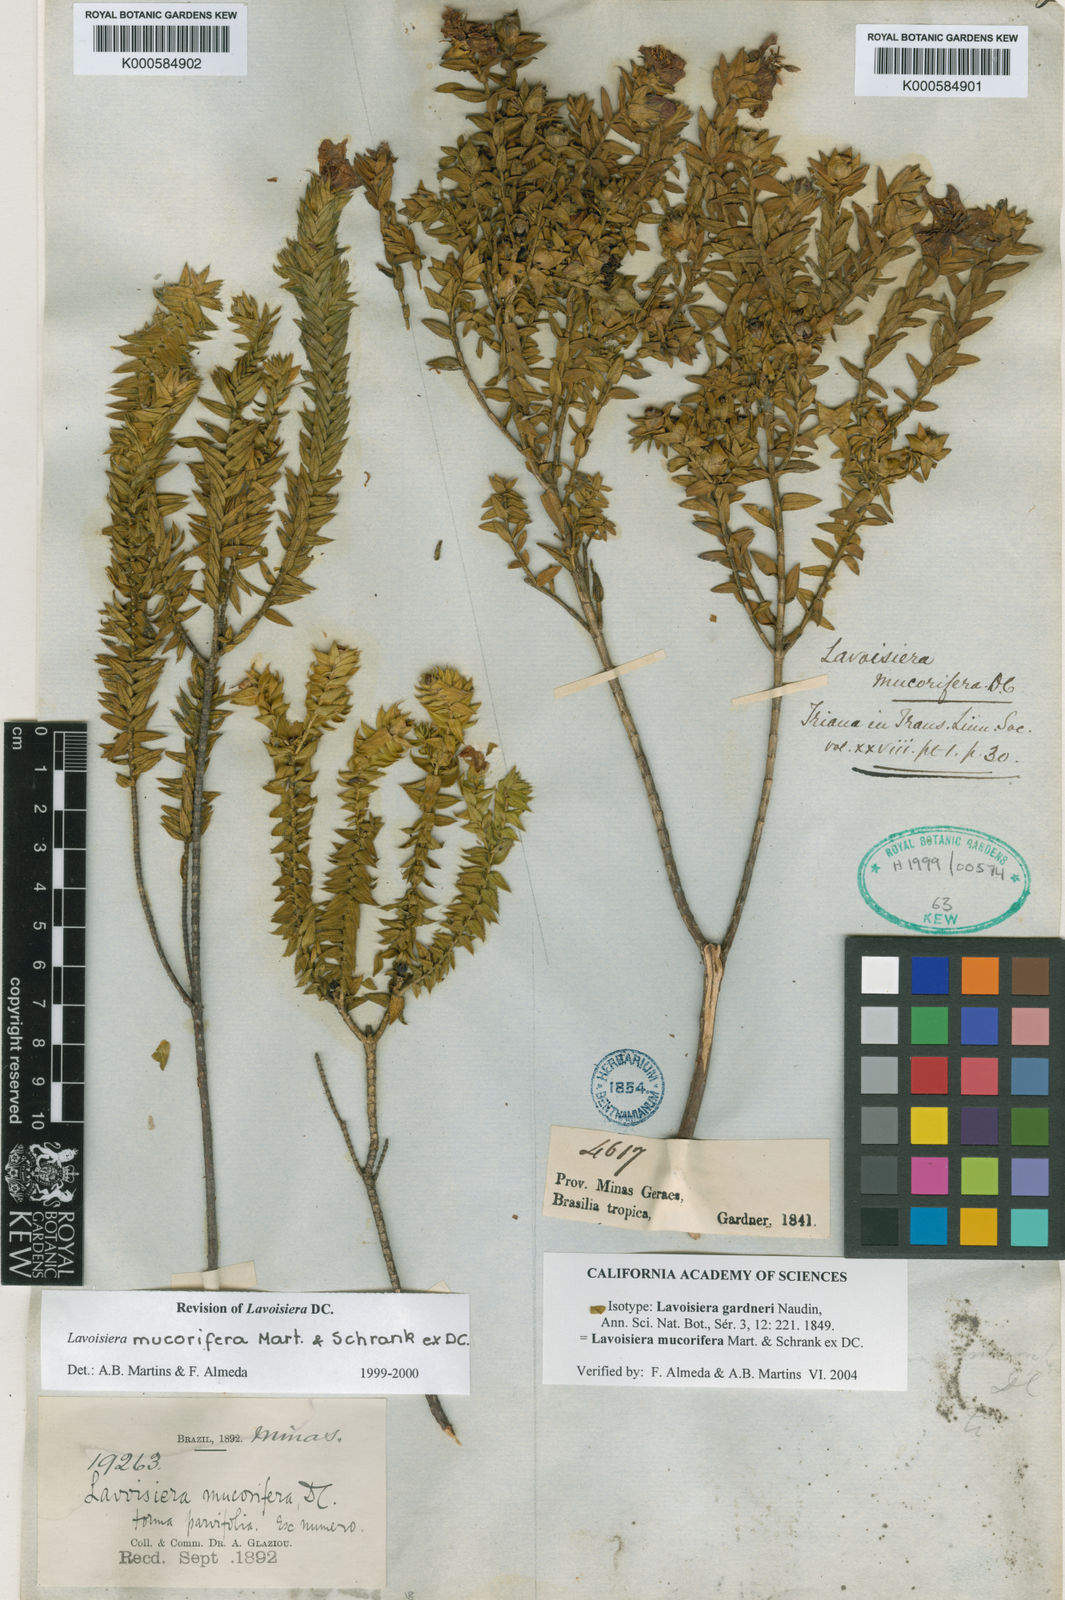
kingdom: Plantae
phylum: Tracheophyta
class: Magnoliopsida
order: Myrtales
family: Melastomataceae
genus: Microlicia
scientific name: Microlicia mucorifera
